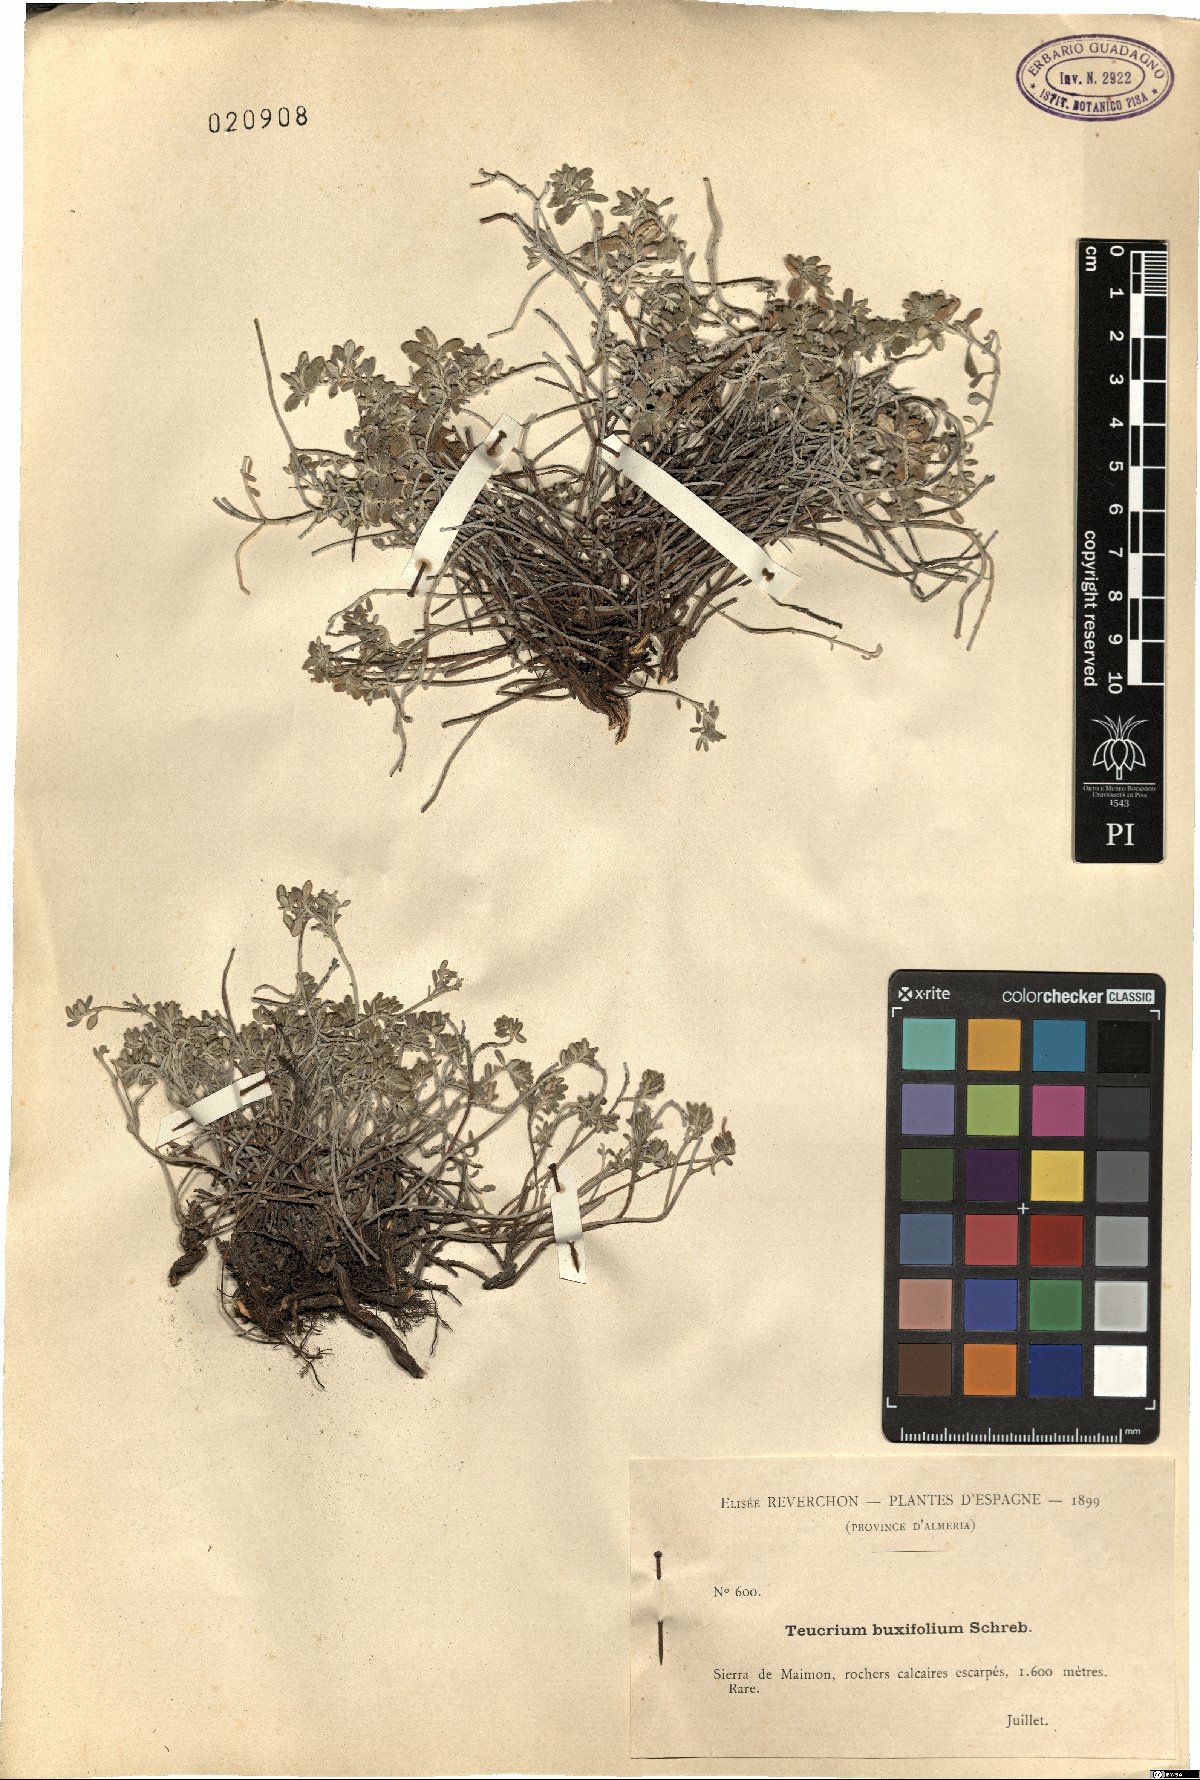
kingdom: Plantae
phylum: Tracheophyta
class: Magnoliopsida
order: Lamiales
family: Lamiaceae
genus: Teucrium
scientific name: Teucrium buxifolium
